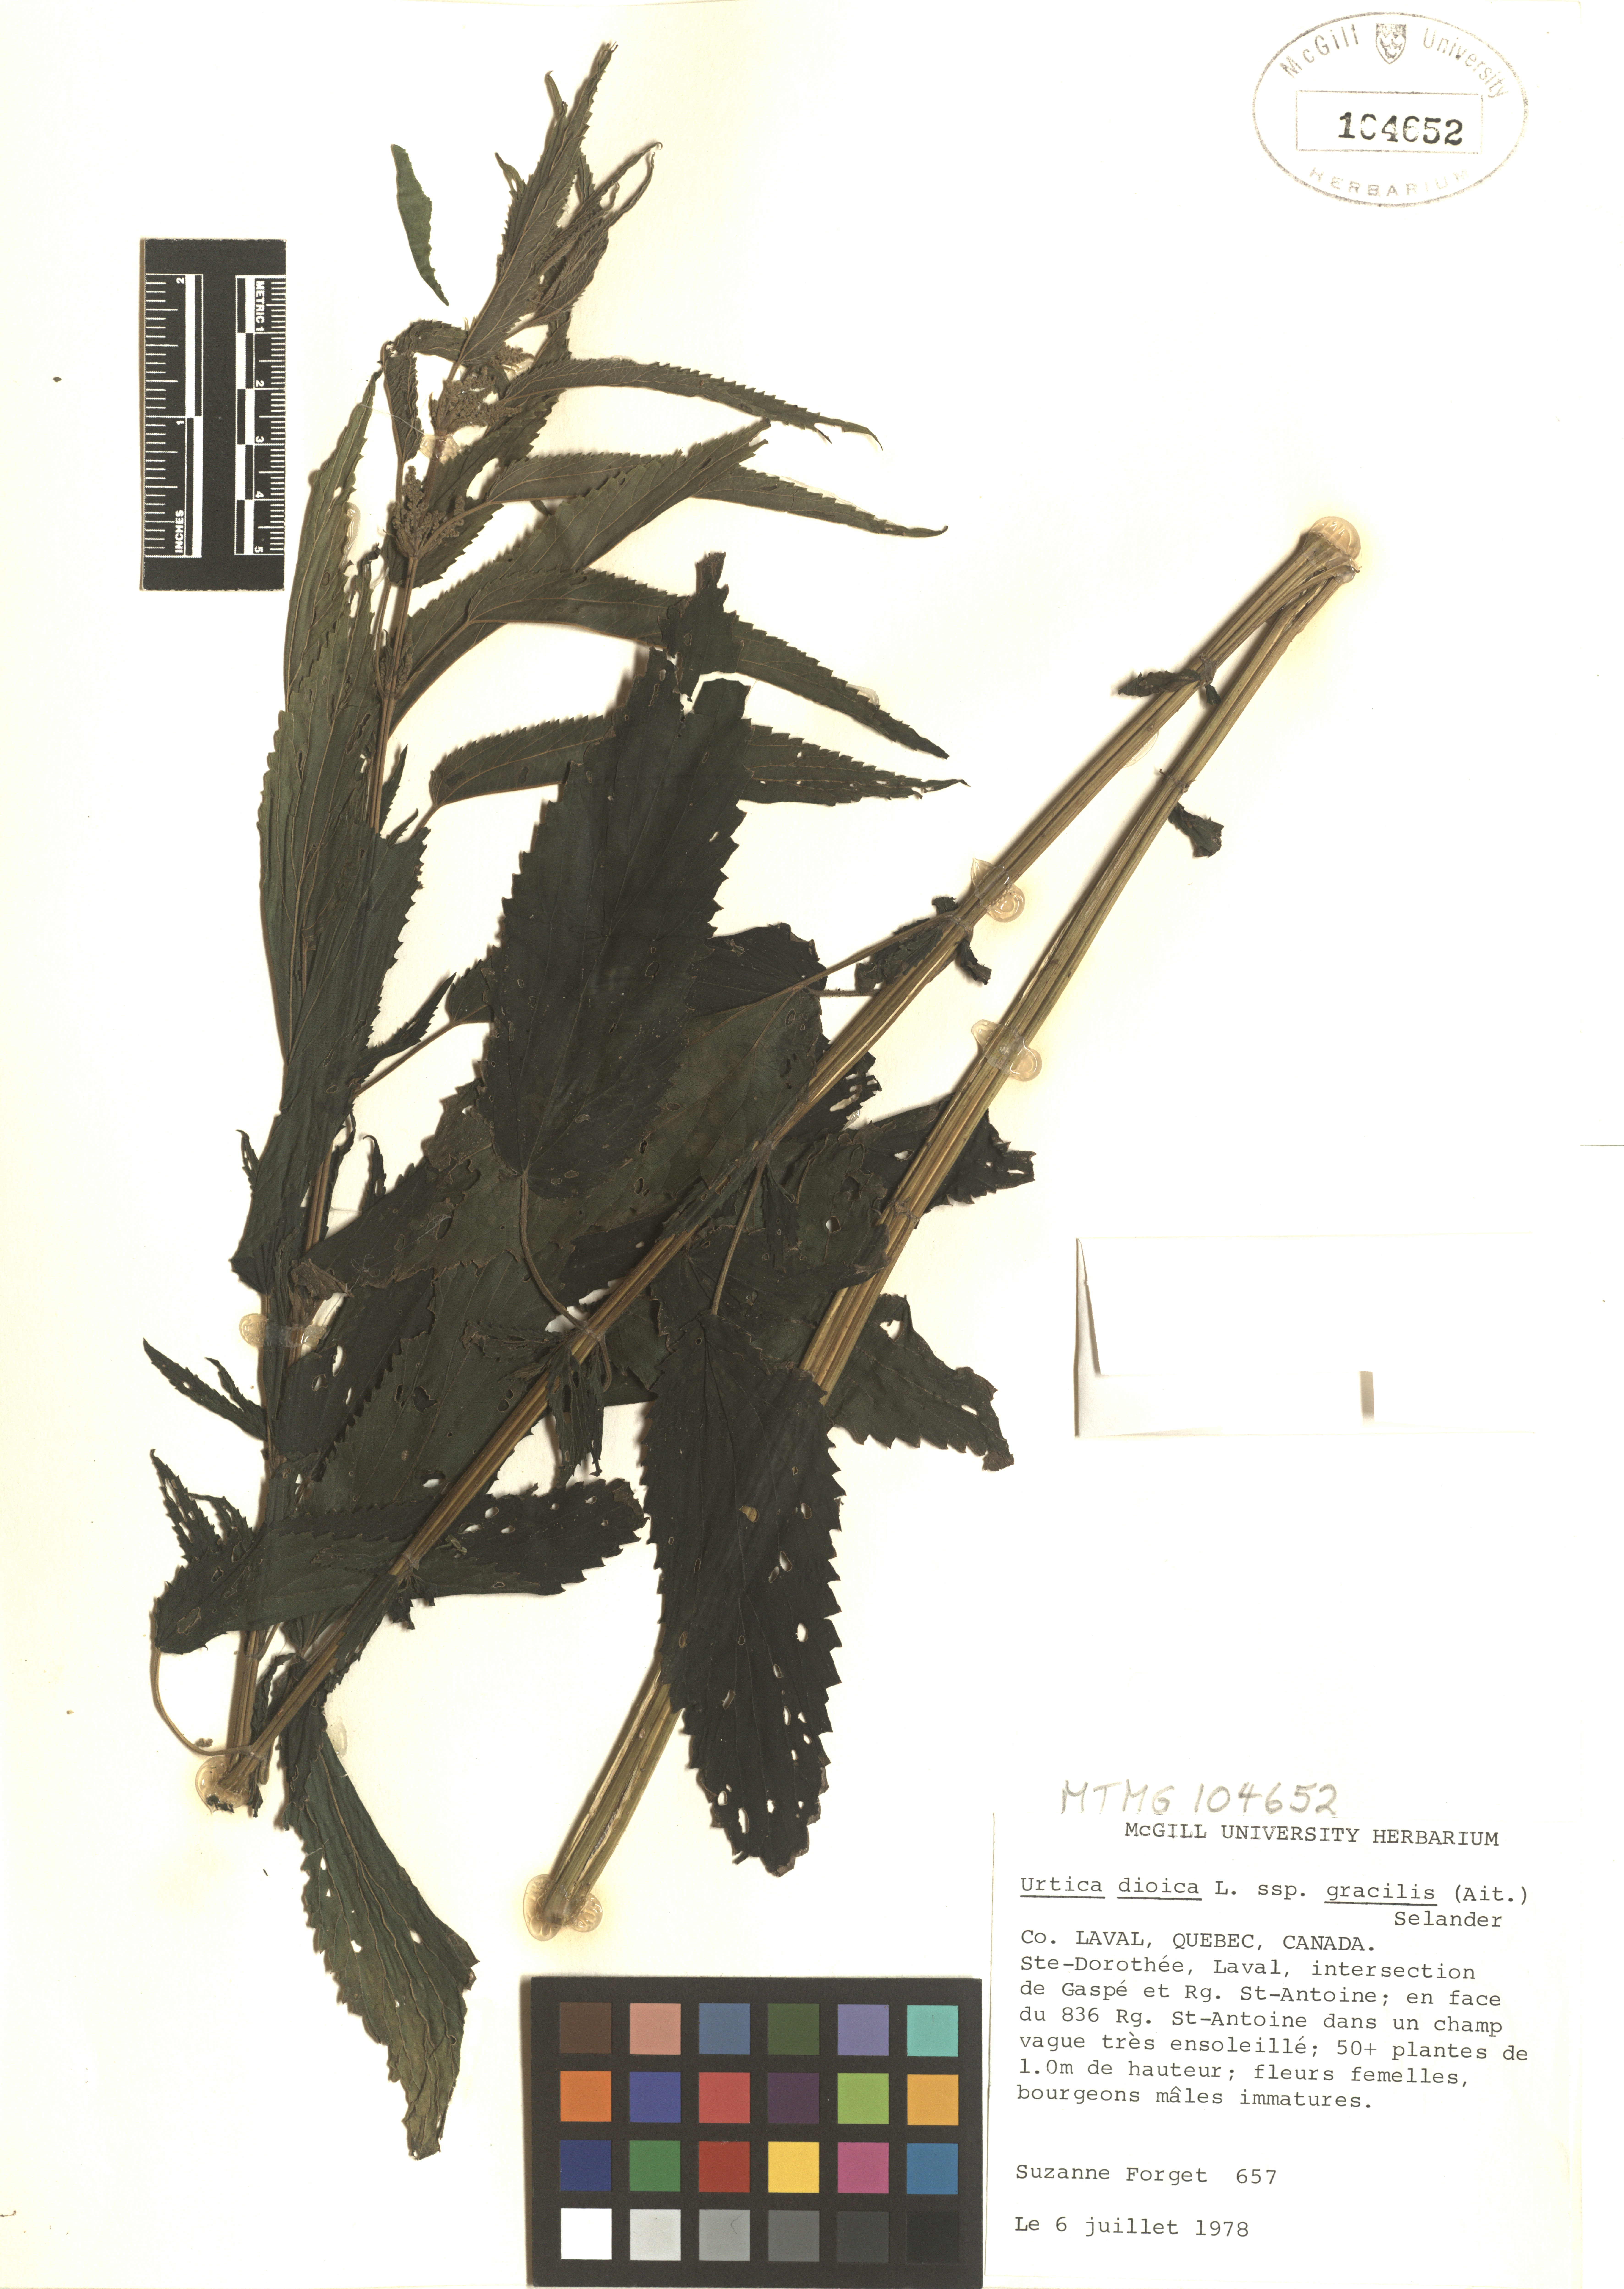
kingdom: Plantae
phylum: Tracheophyta
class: Magnoliopsida
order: Rosales
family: Urticaceae
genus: Urtica
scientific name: Urtica gracilis
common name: Slender stinging nettle
